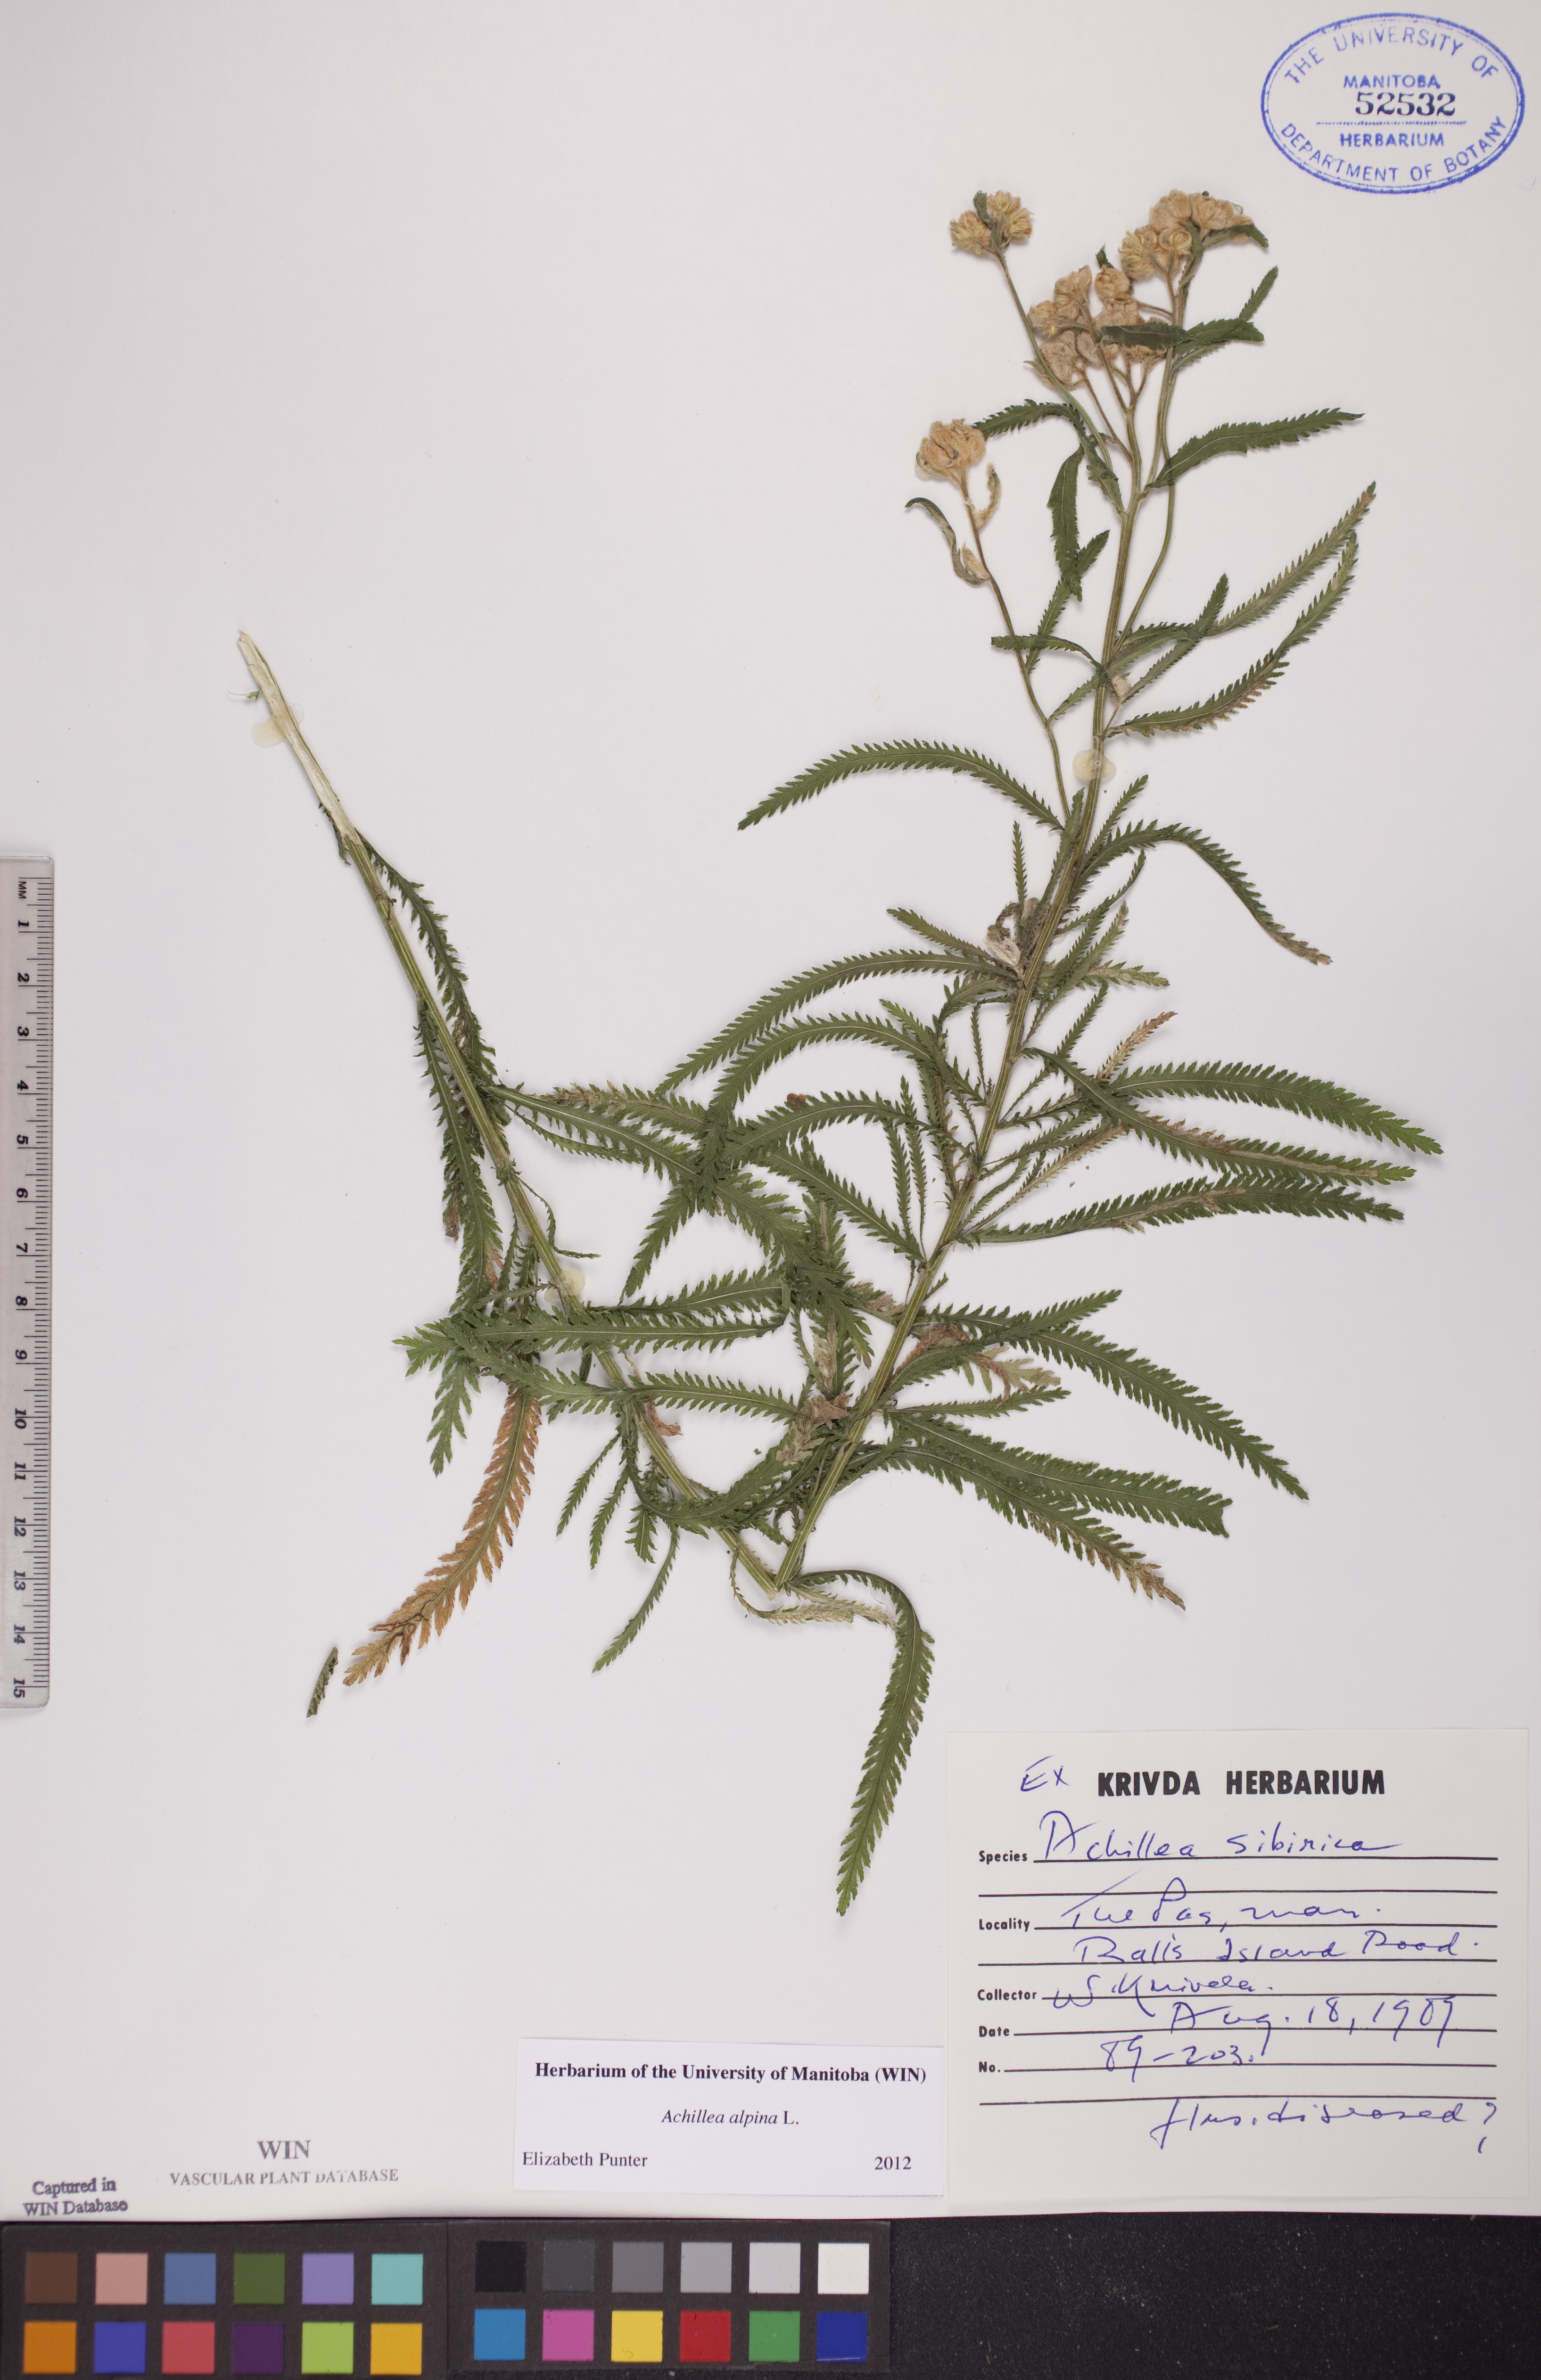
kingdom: Plantae
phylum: Tracheophyta
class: Magnoliopsida
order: Asterales
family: Asteraceae
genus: Achillea
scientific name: Achillea alpina
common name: Siberian yarrow
